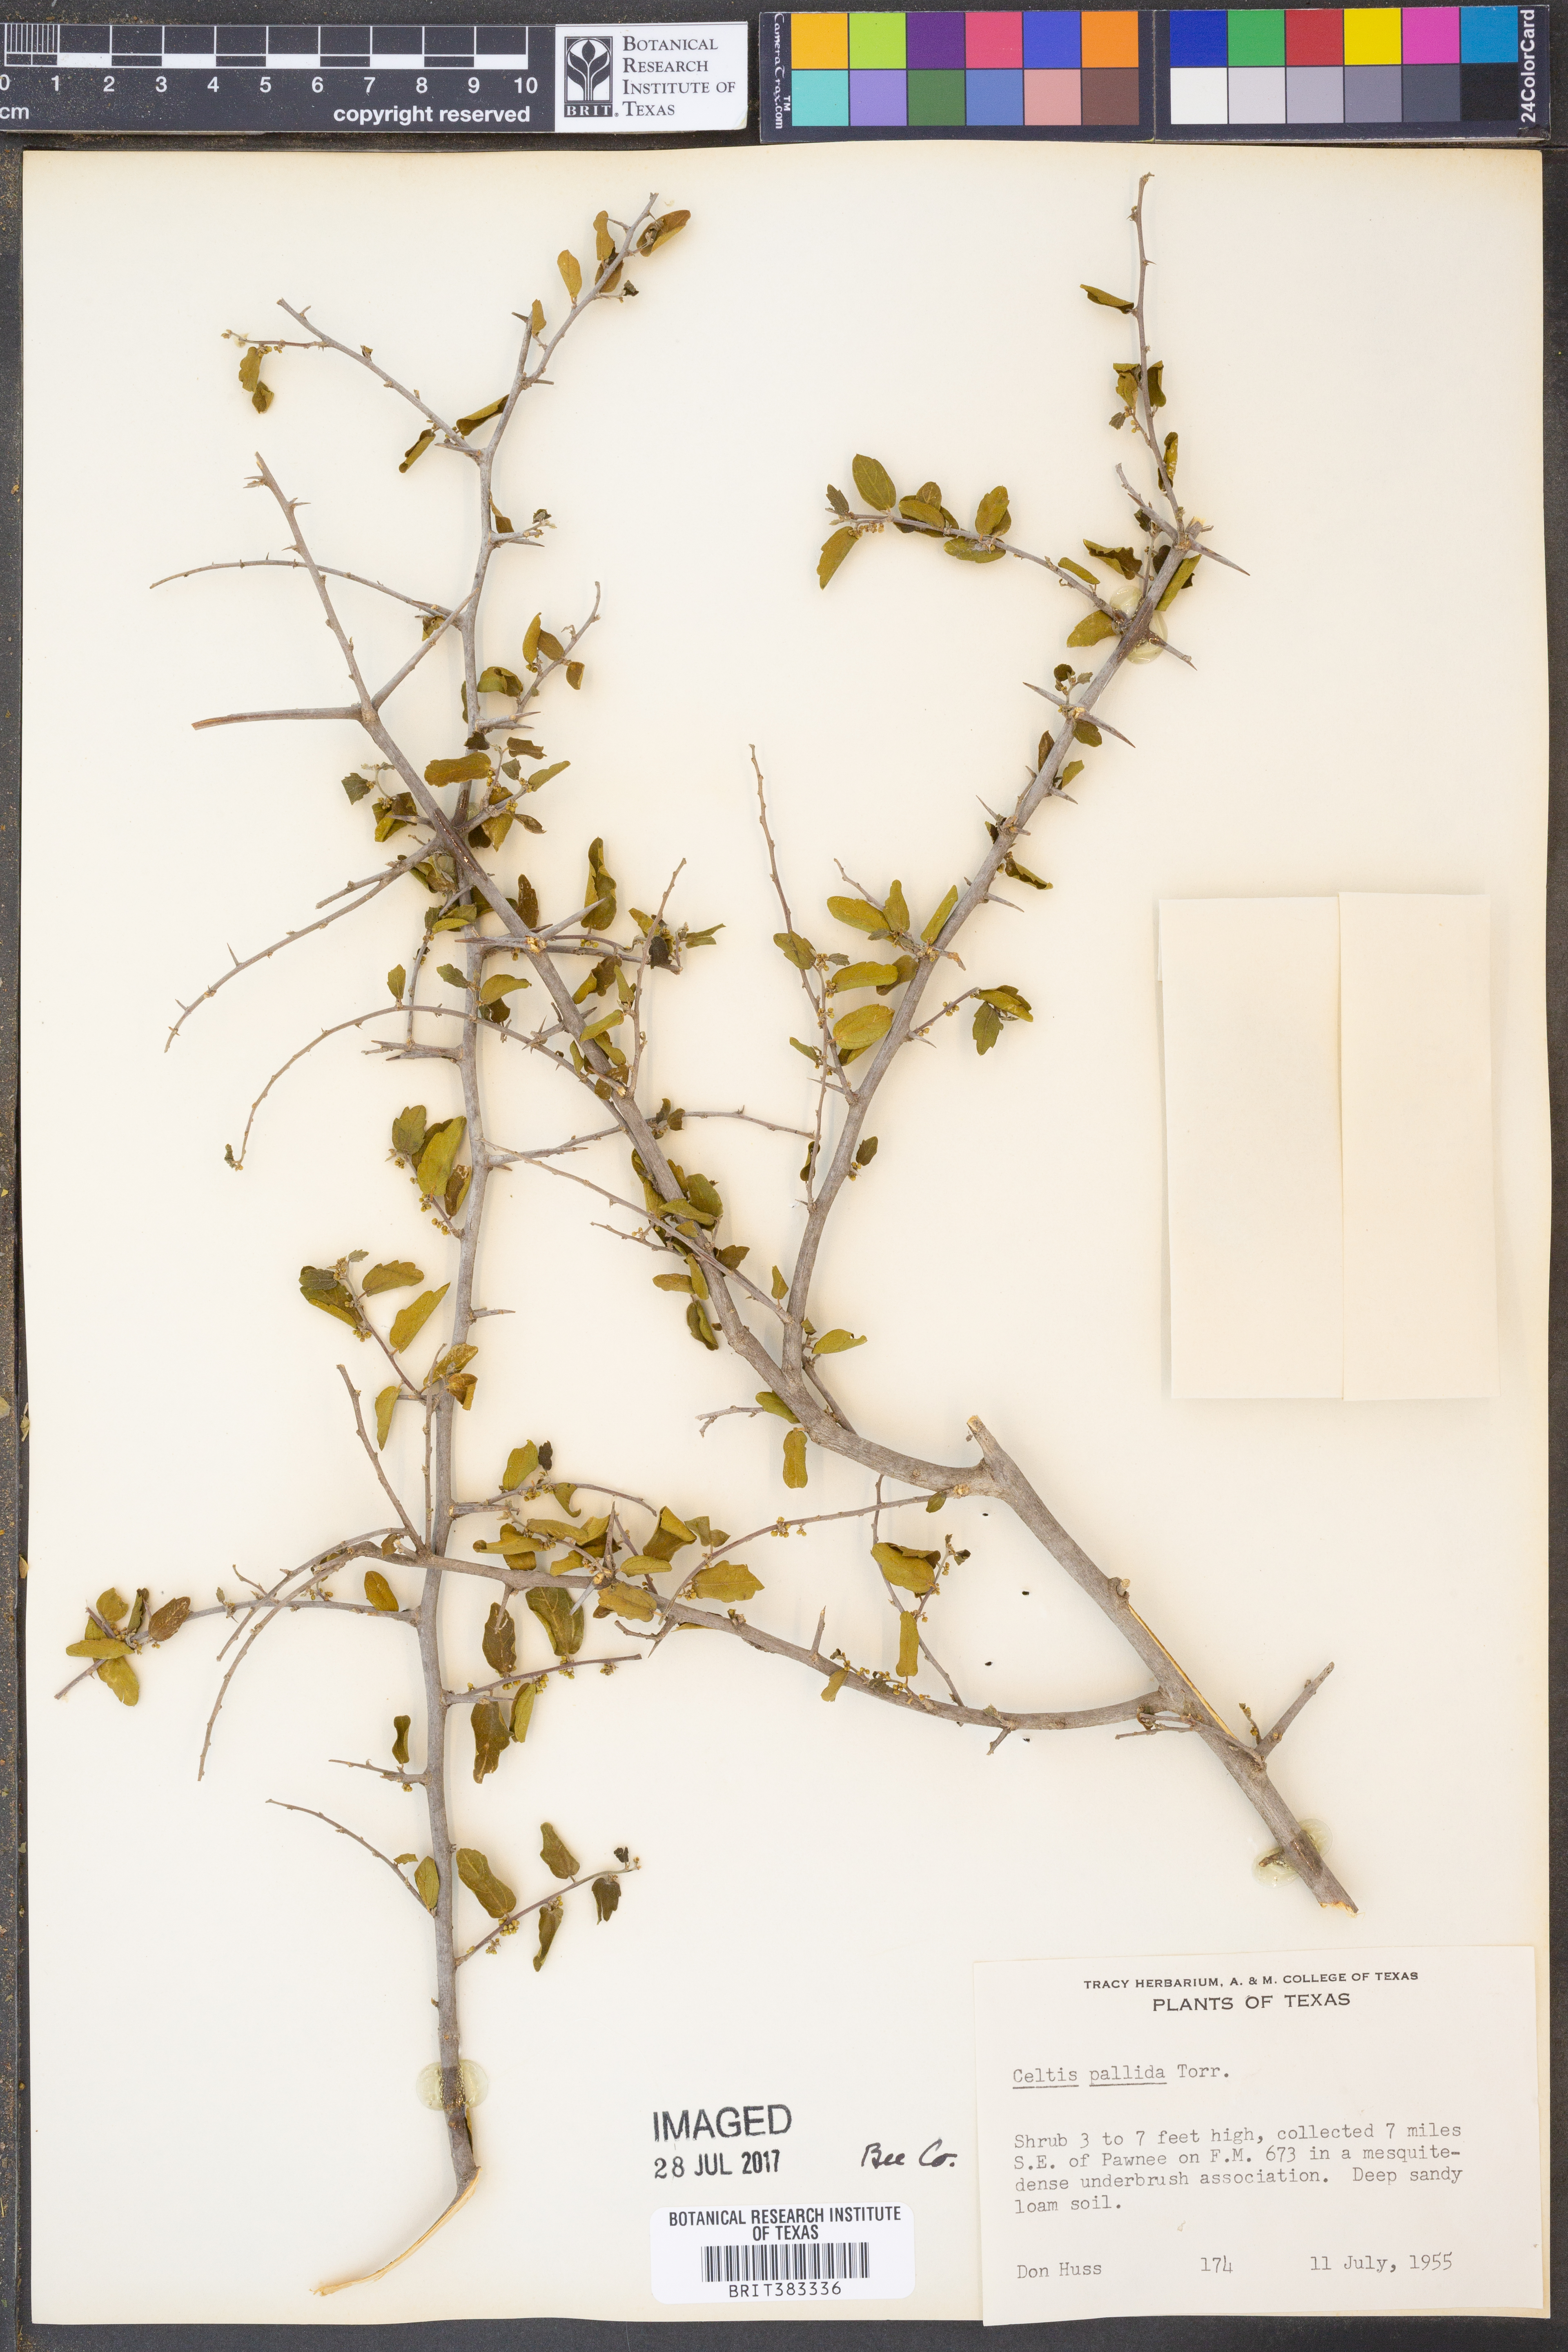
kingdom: Plantae
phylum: Tracheophyta
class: Magnoliopsida
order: Rosales
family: Cannabaceae
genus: Celtis
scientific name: Celtis pallida
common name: Desert hackberry
